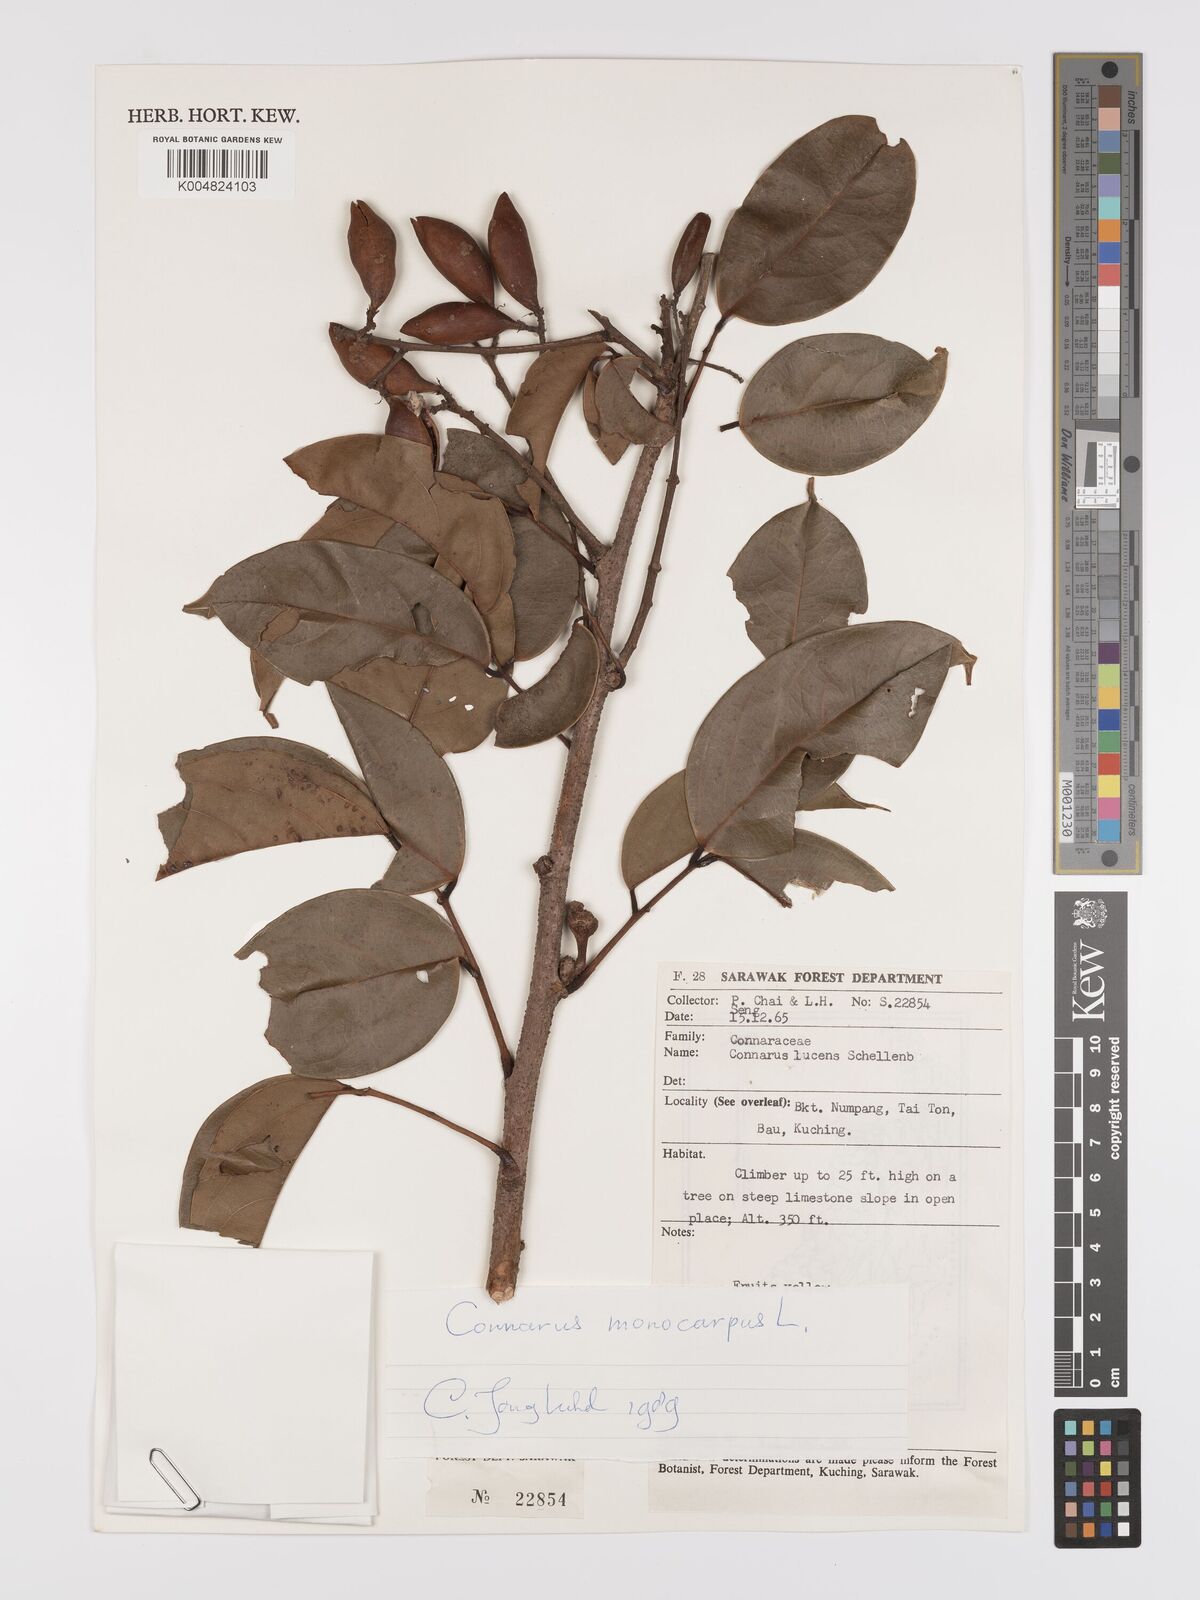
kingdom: Plantae
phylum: Tracheophyta
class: Magnoliopsida
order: Oxalidales
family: Connaraceae
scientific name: Connaraceae
